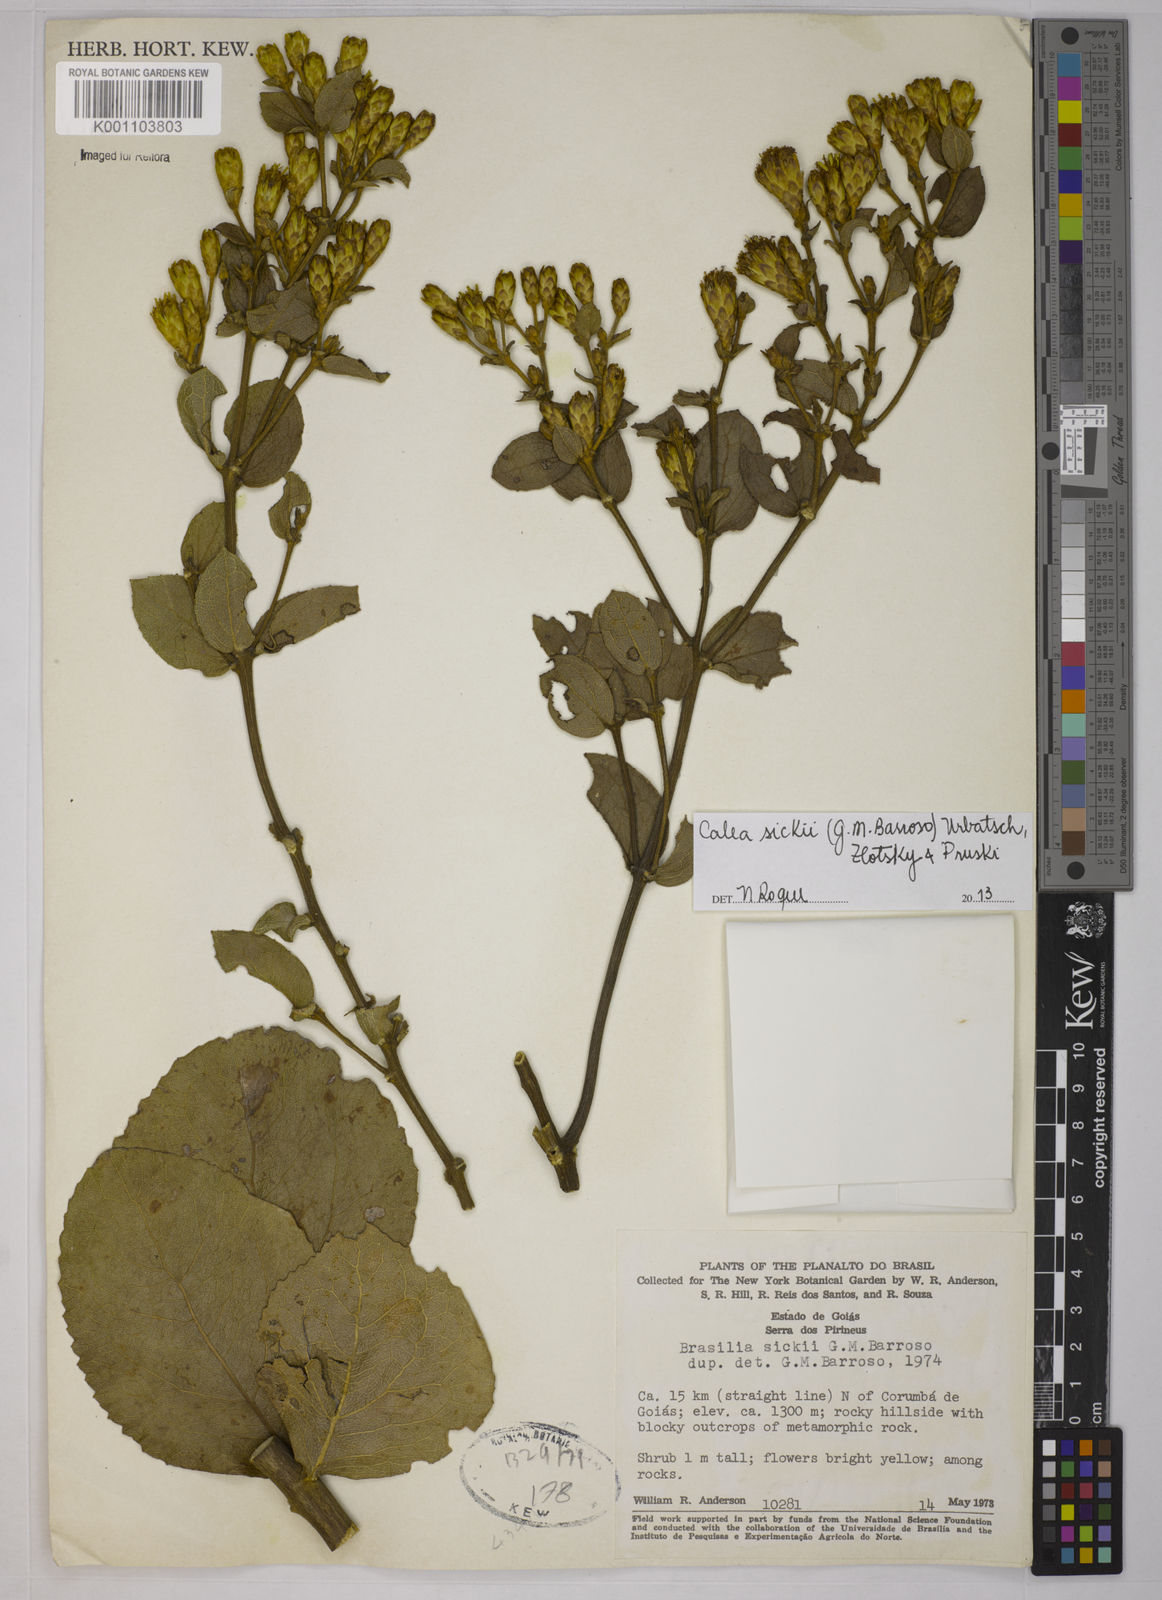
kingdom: Plantae
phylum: Tracheophyta
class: Magnoliopsida
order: Asterales
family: Asteraceae
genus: Calea
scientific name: Calea sickii
